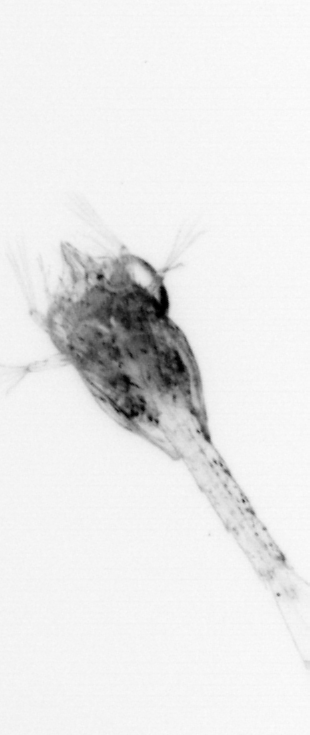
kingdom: Animalia
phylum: Arthropoda
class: Malacostraca
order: Decapoda
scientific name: Decapoda
